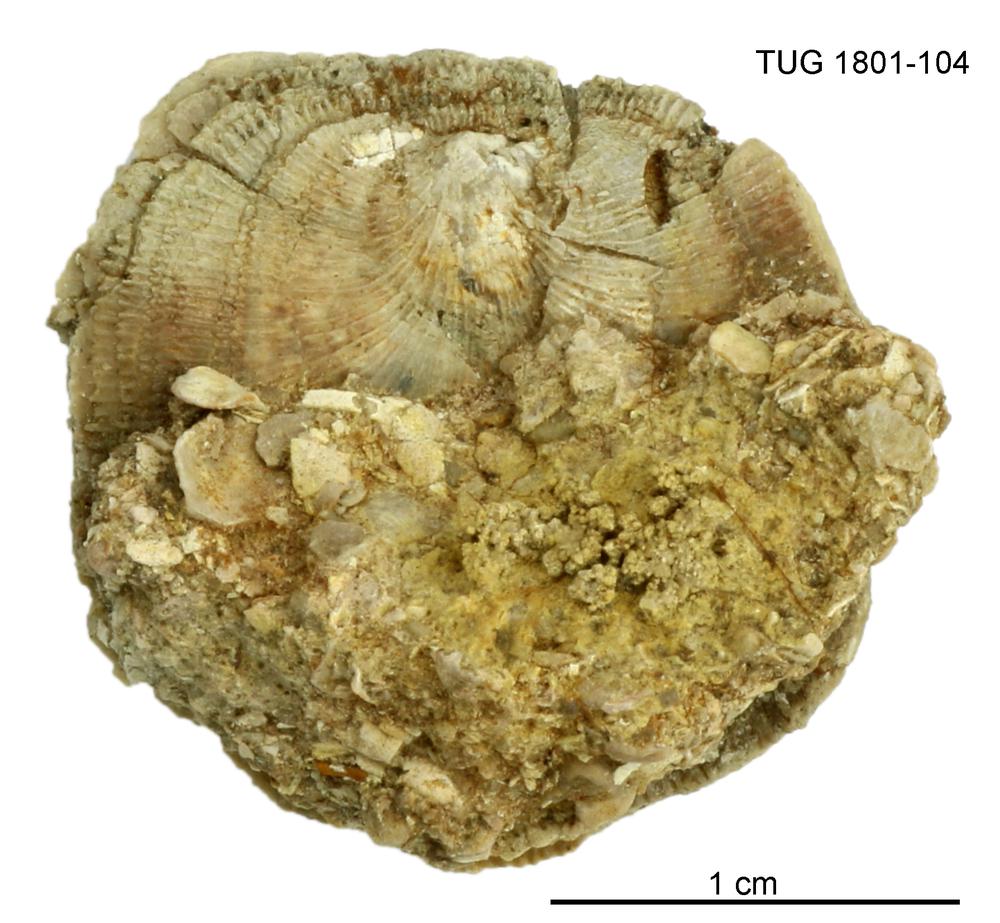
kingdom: Animalia
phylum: Brachiopoda
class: Craniata
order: Craniida
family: Craniidae
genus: Philhedra
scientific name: Philhedra
